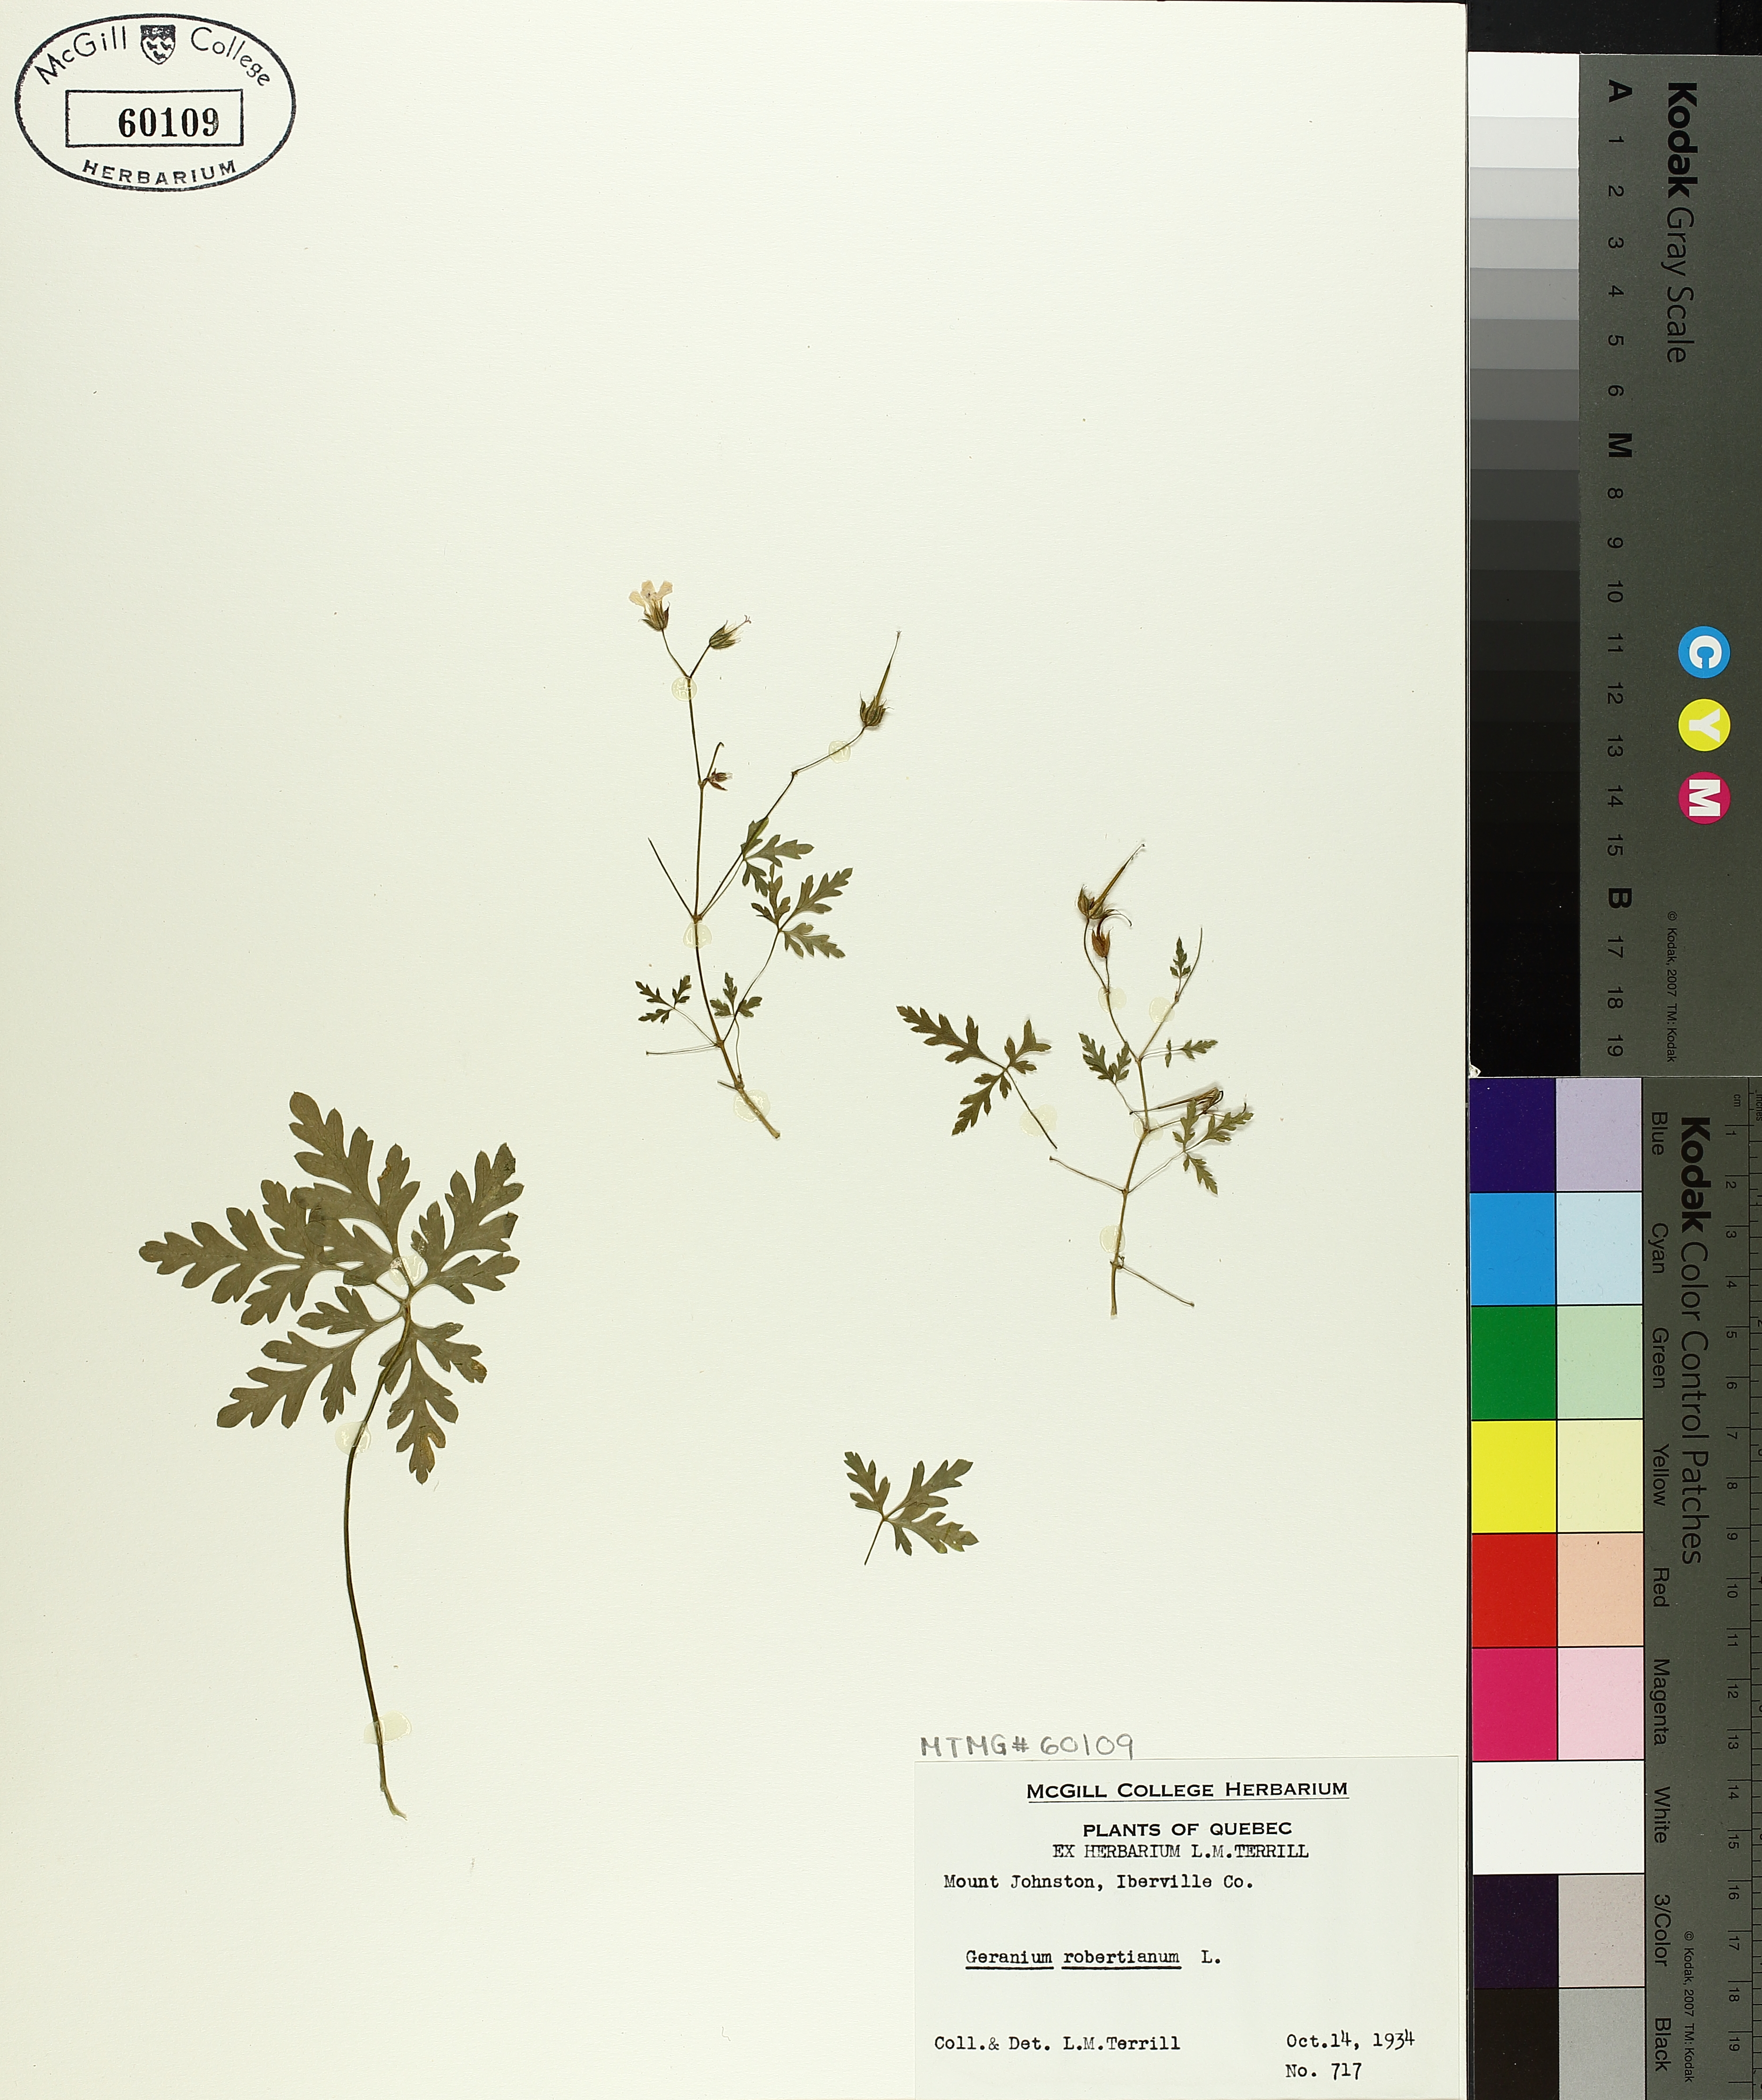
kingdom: Plantae
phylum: Tracheophyta
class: Magnoliopsida
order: Geraniales
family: Geraniaceae
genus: Geranium
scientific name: Geranium robertianum
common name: Herb-robert
